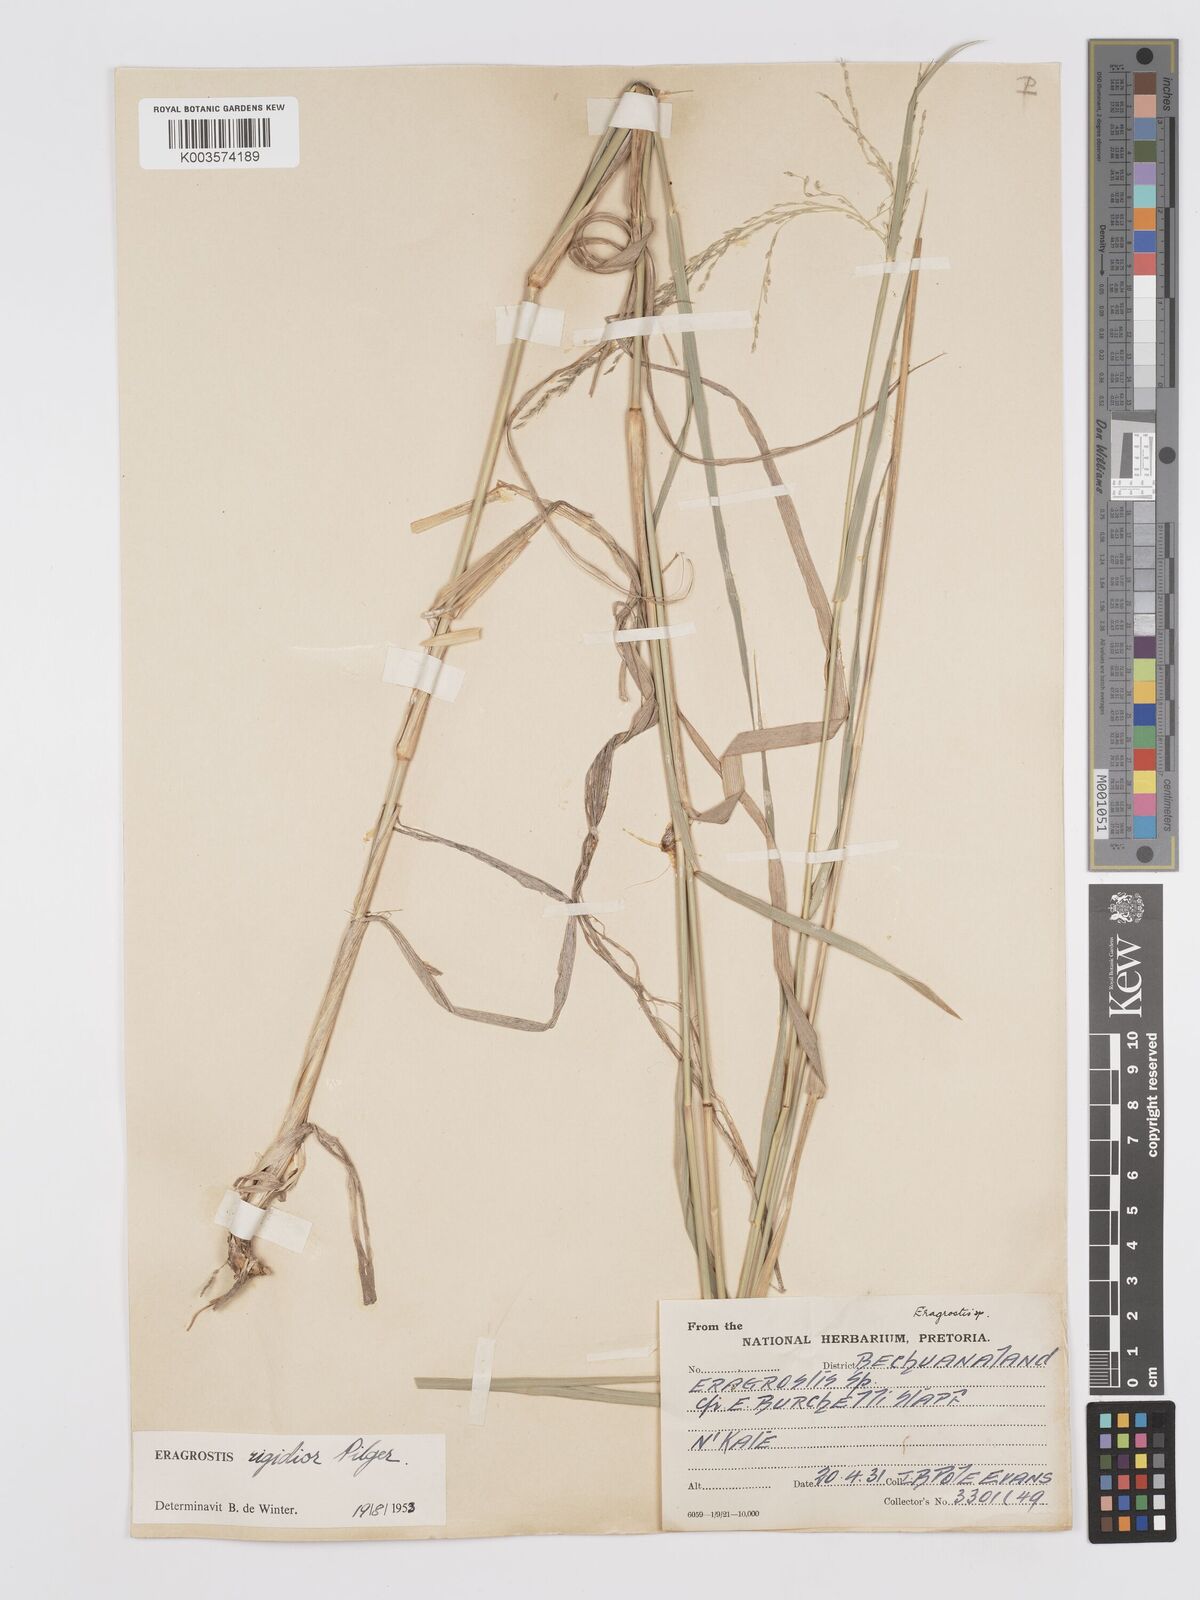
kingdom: Plantae
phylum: Tracheophyta
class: Liliopsida
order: Poales
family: Poaceae
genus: Eragrostis
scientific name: Eragrostis cylindriflora
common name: Cylinderflower lovegrass
